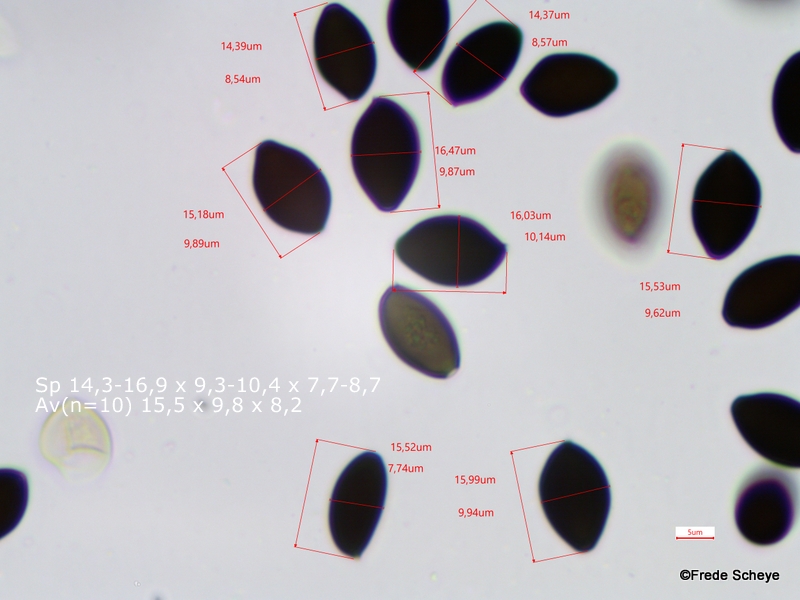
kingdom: Fungi
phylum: Basidiomycota
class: Agaricomycetes
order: Agaricales
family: Bolbitiaceae
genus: Panaeolus
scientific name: Panaeolus papilionaceus
